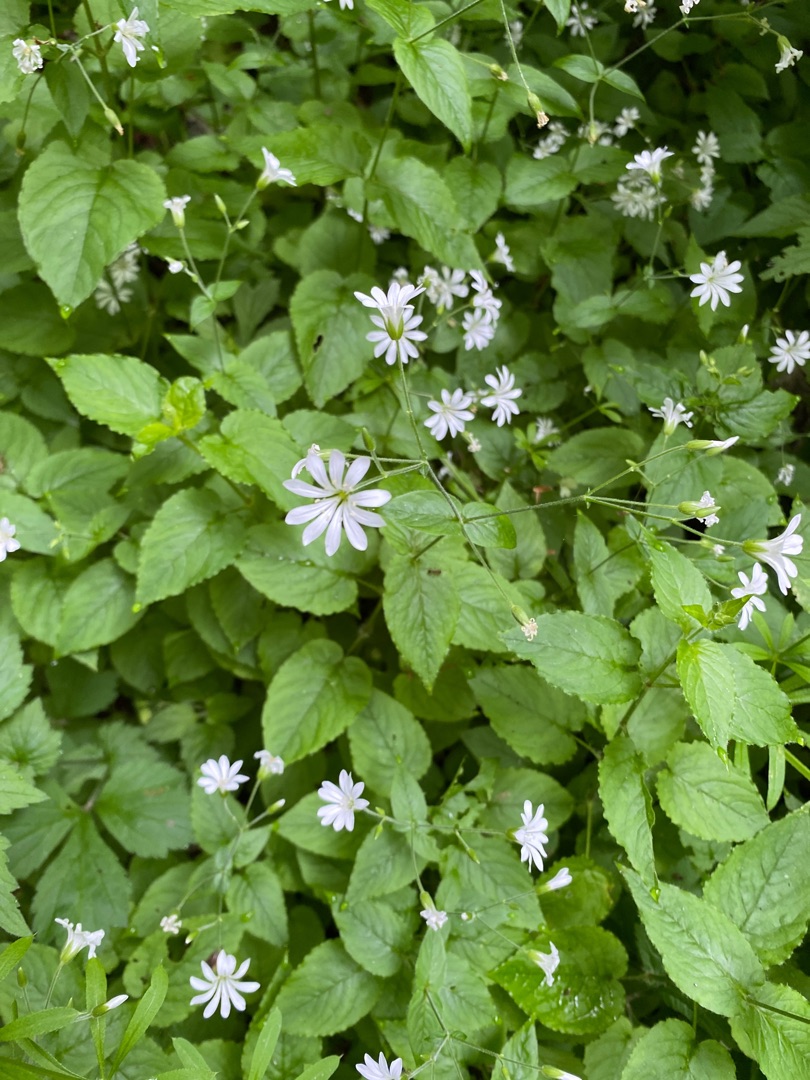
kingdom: Plantae
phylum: Tracheophyta
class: Magnoliopsida
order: Caryophyllales
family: Caryophyllaceae
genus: Stellaria
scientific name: Stellaria glochidisperma
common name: Sydlig lund-fladstjerne
